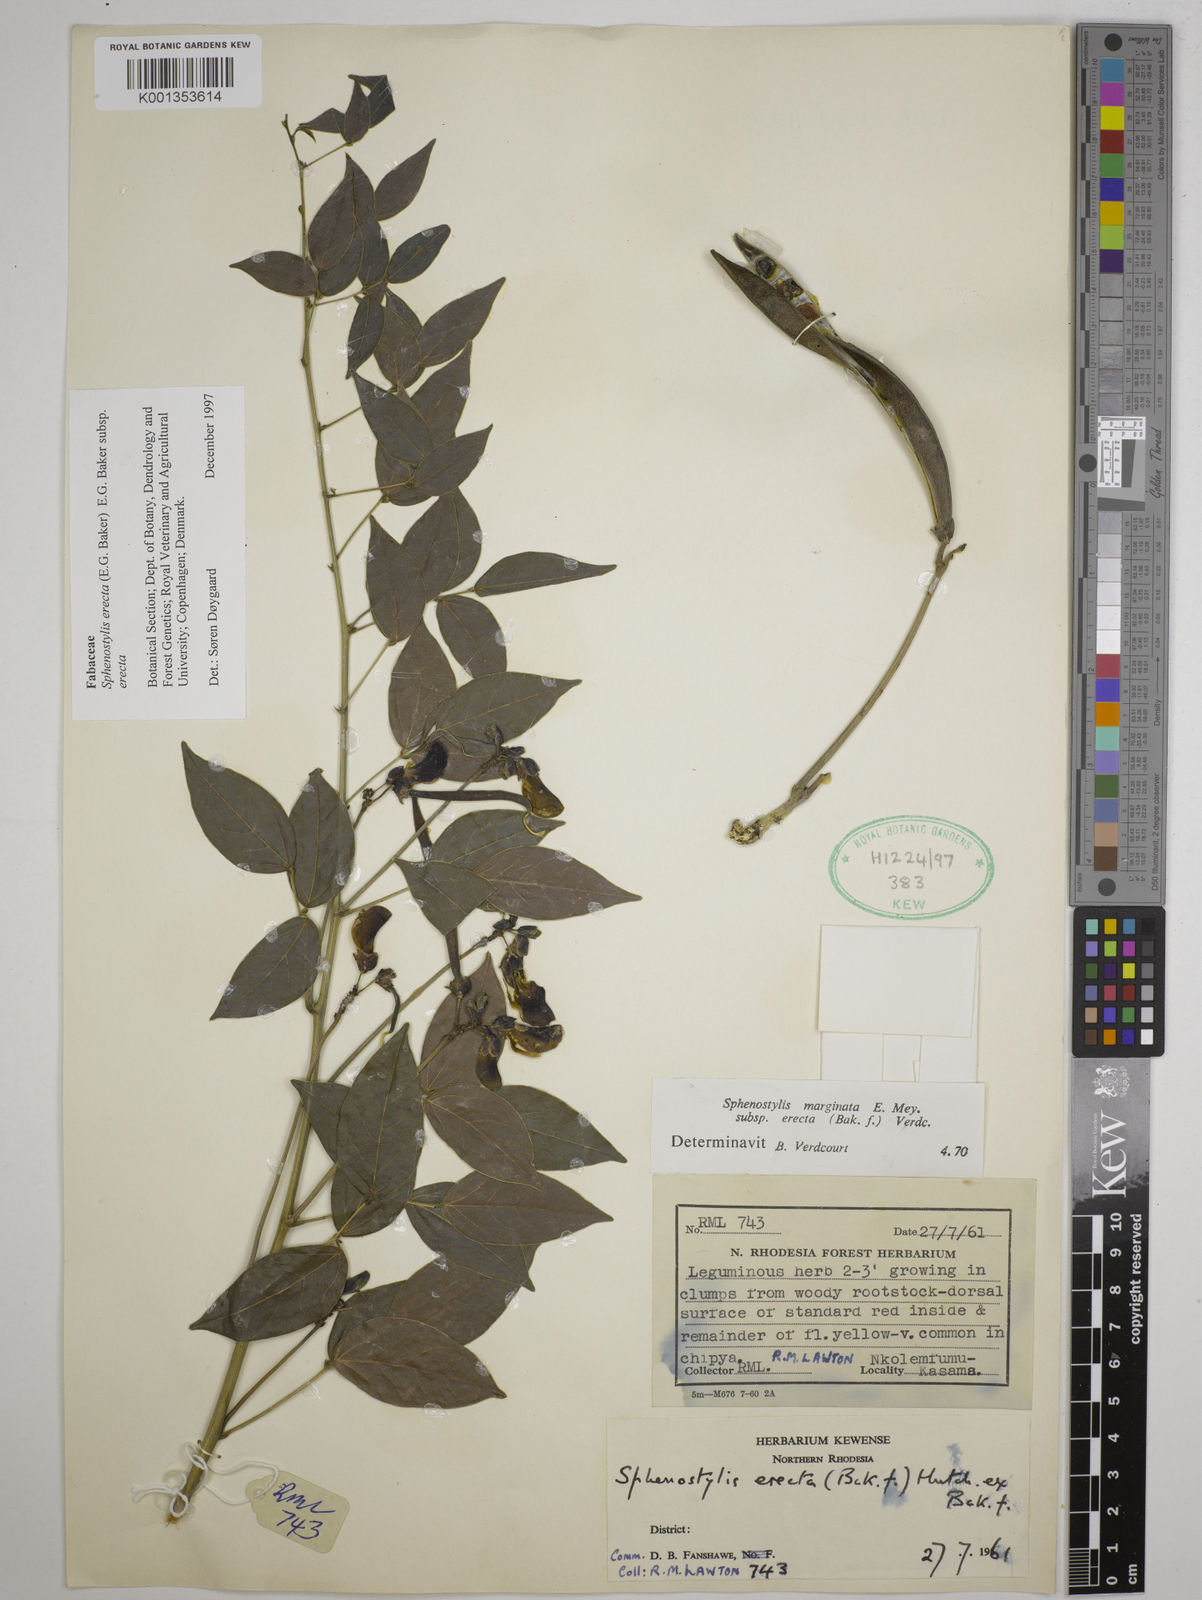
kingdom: Plantae
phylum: Tracheophyta
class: Magnoliopsida
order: Fabales
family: Fabaceae
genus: Sphenostylis
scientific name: Sphenostylis erecta
